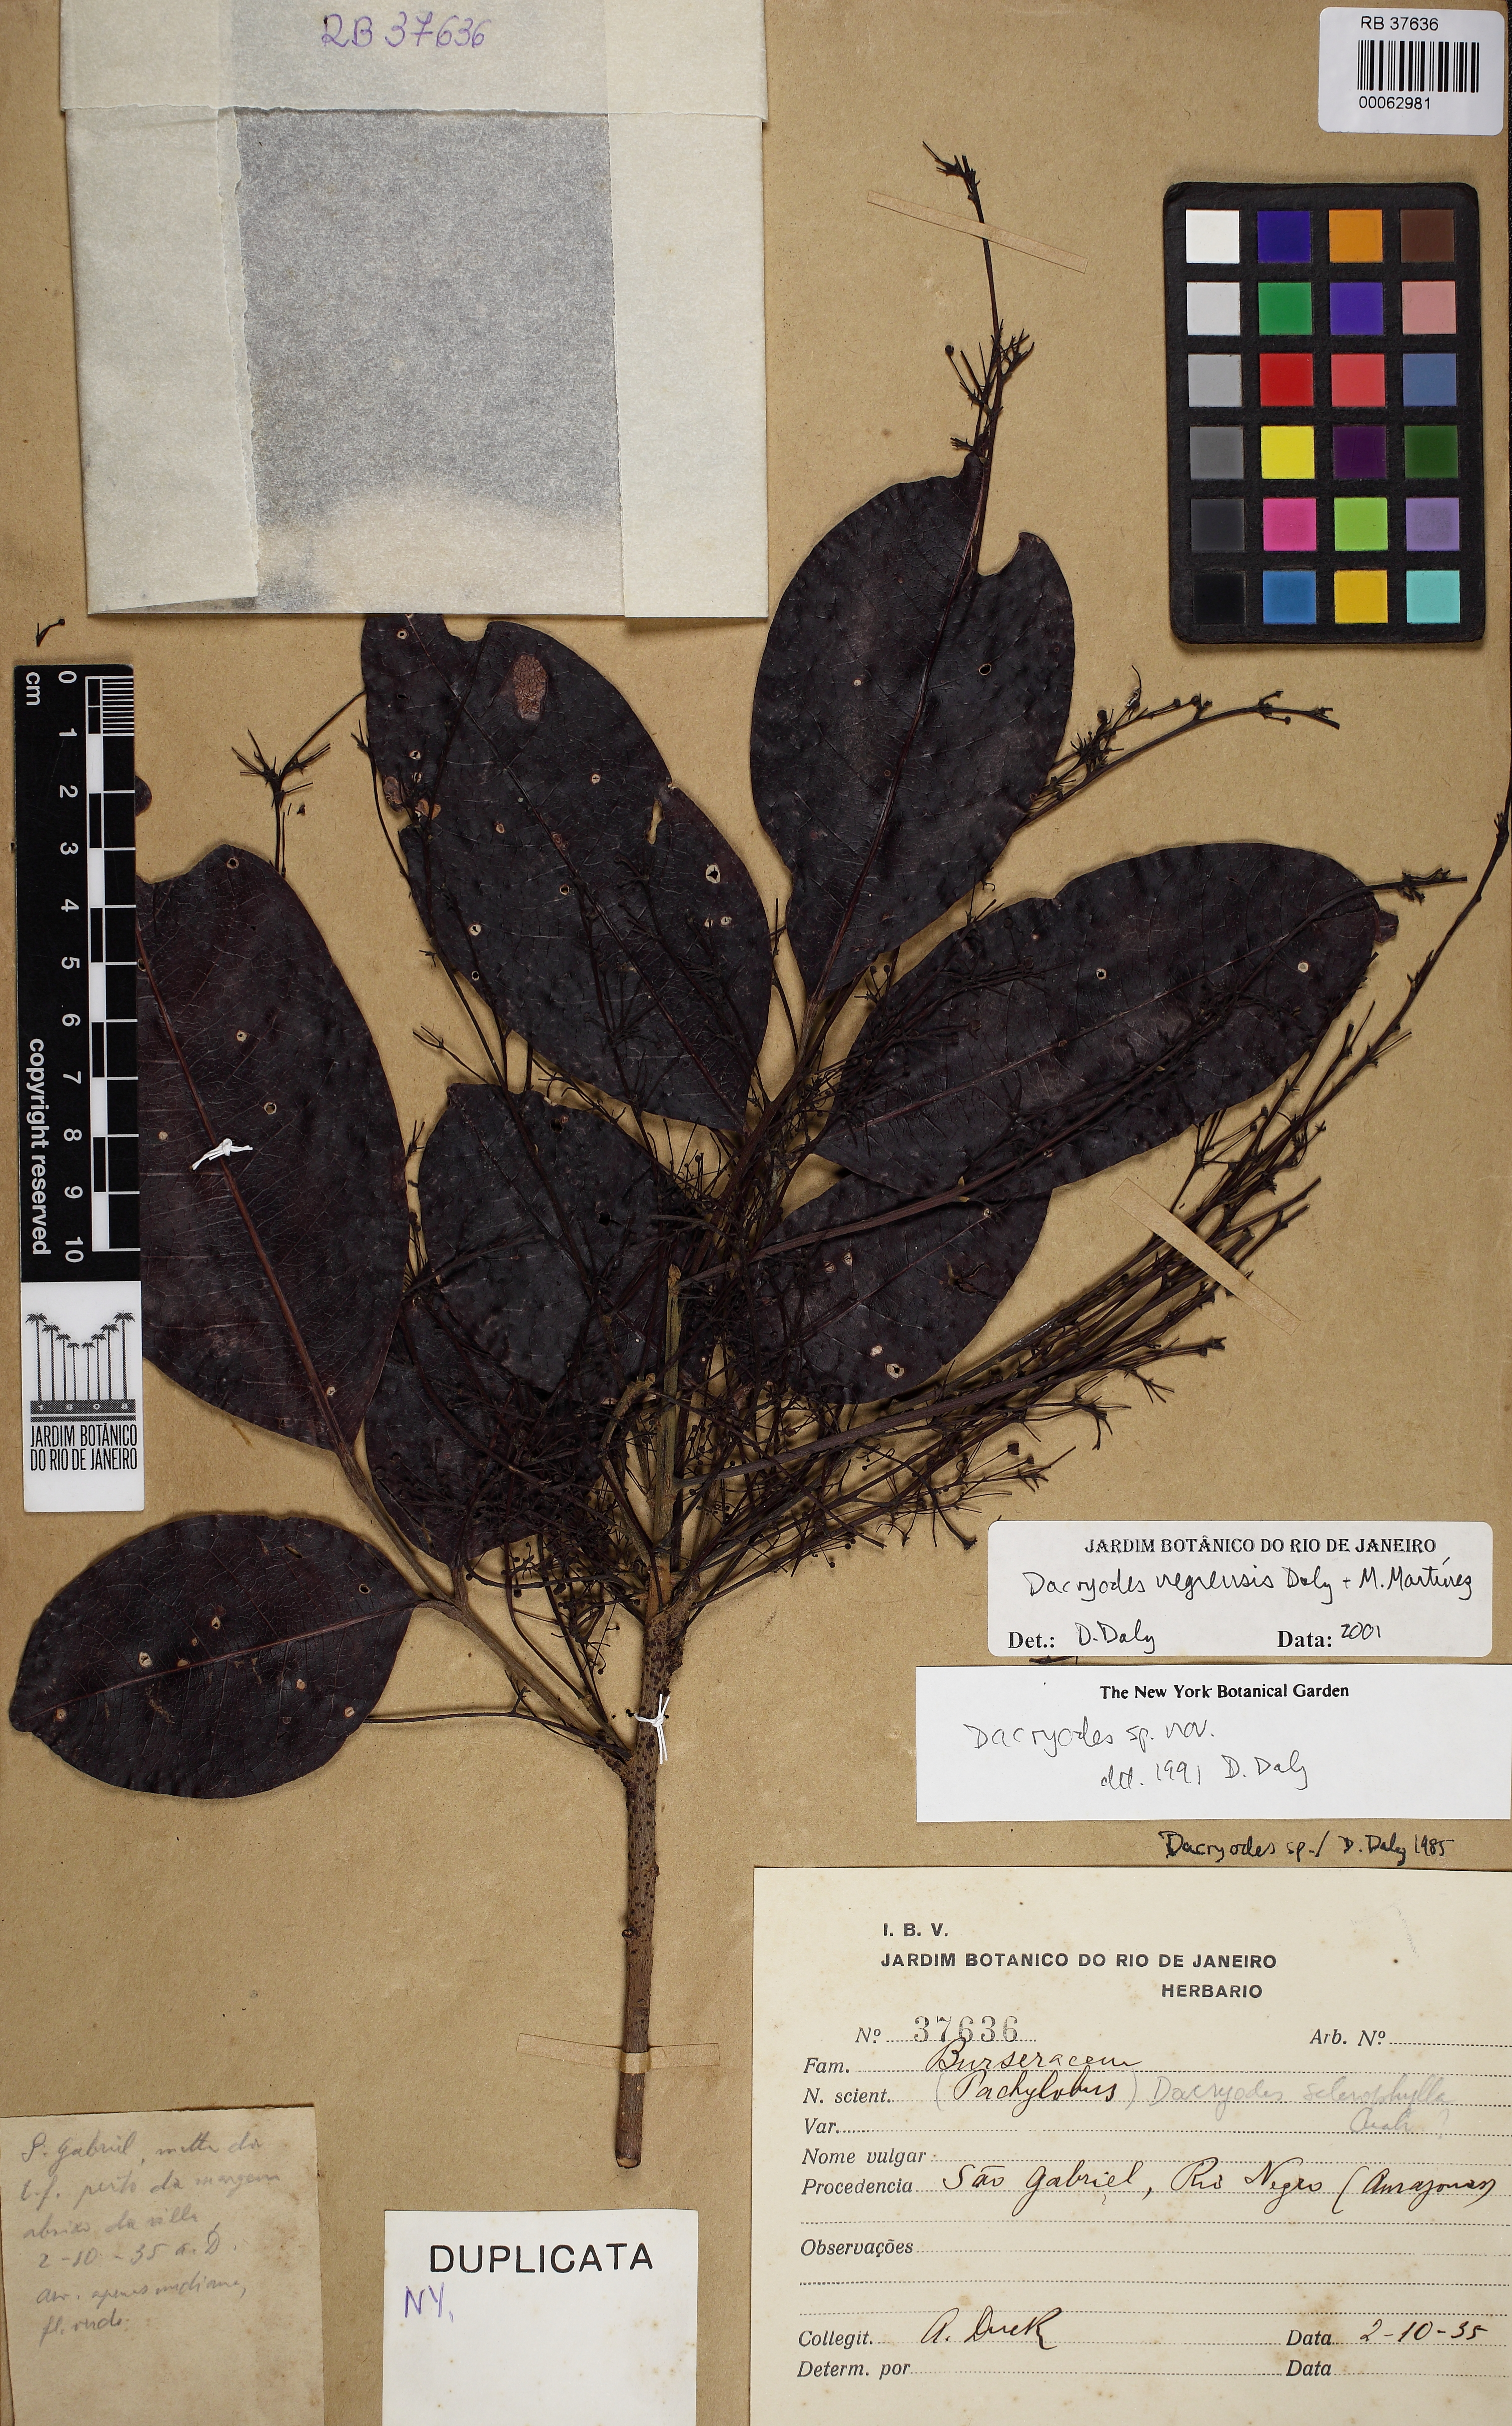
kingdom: Plantae
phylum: Tracheophyta
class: Magnoliopsida
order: Sapindales
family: Burseraceae
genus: Dacryodes
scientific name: Dacryodes negrensis
